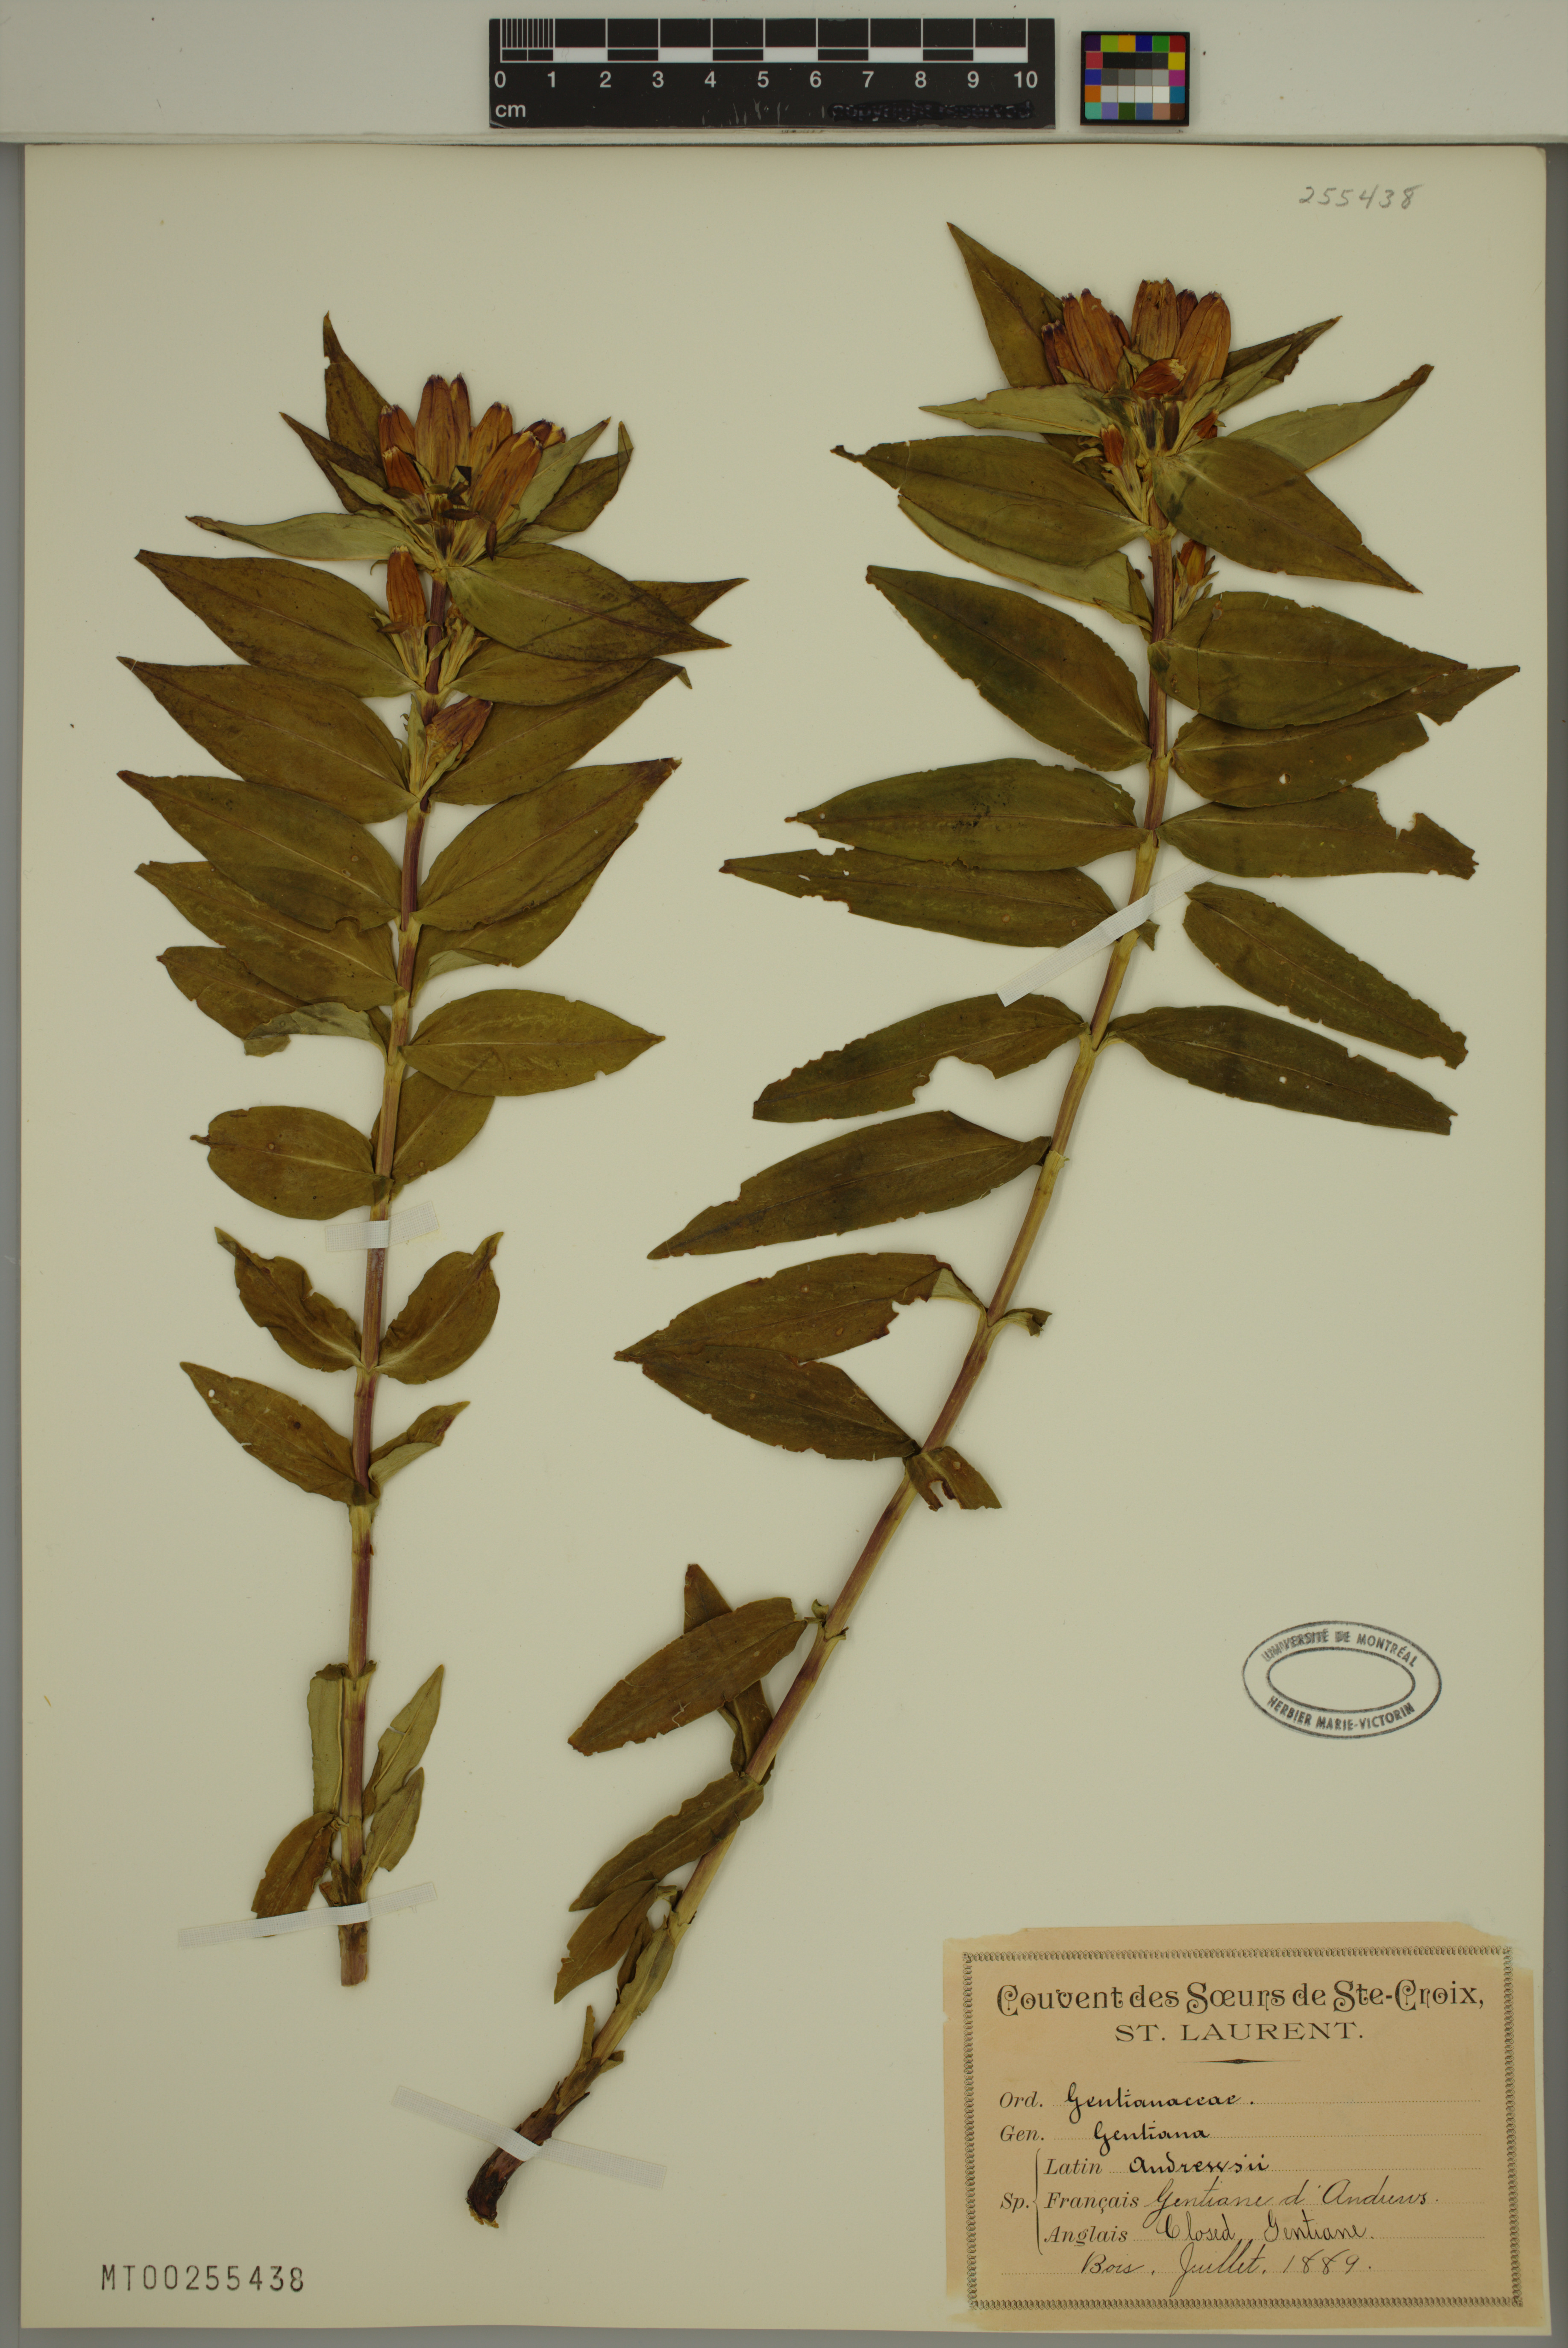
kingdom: Plantae
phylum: Tracheophyta
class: Magnoliopsida
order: Gentianales
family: Gentianaceae
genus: Gentiana
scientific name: Gentiana andrewsii
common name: Bottle gentian
